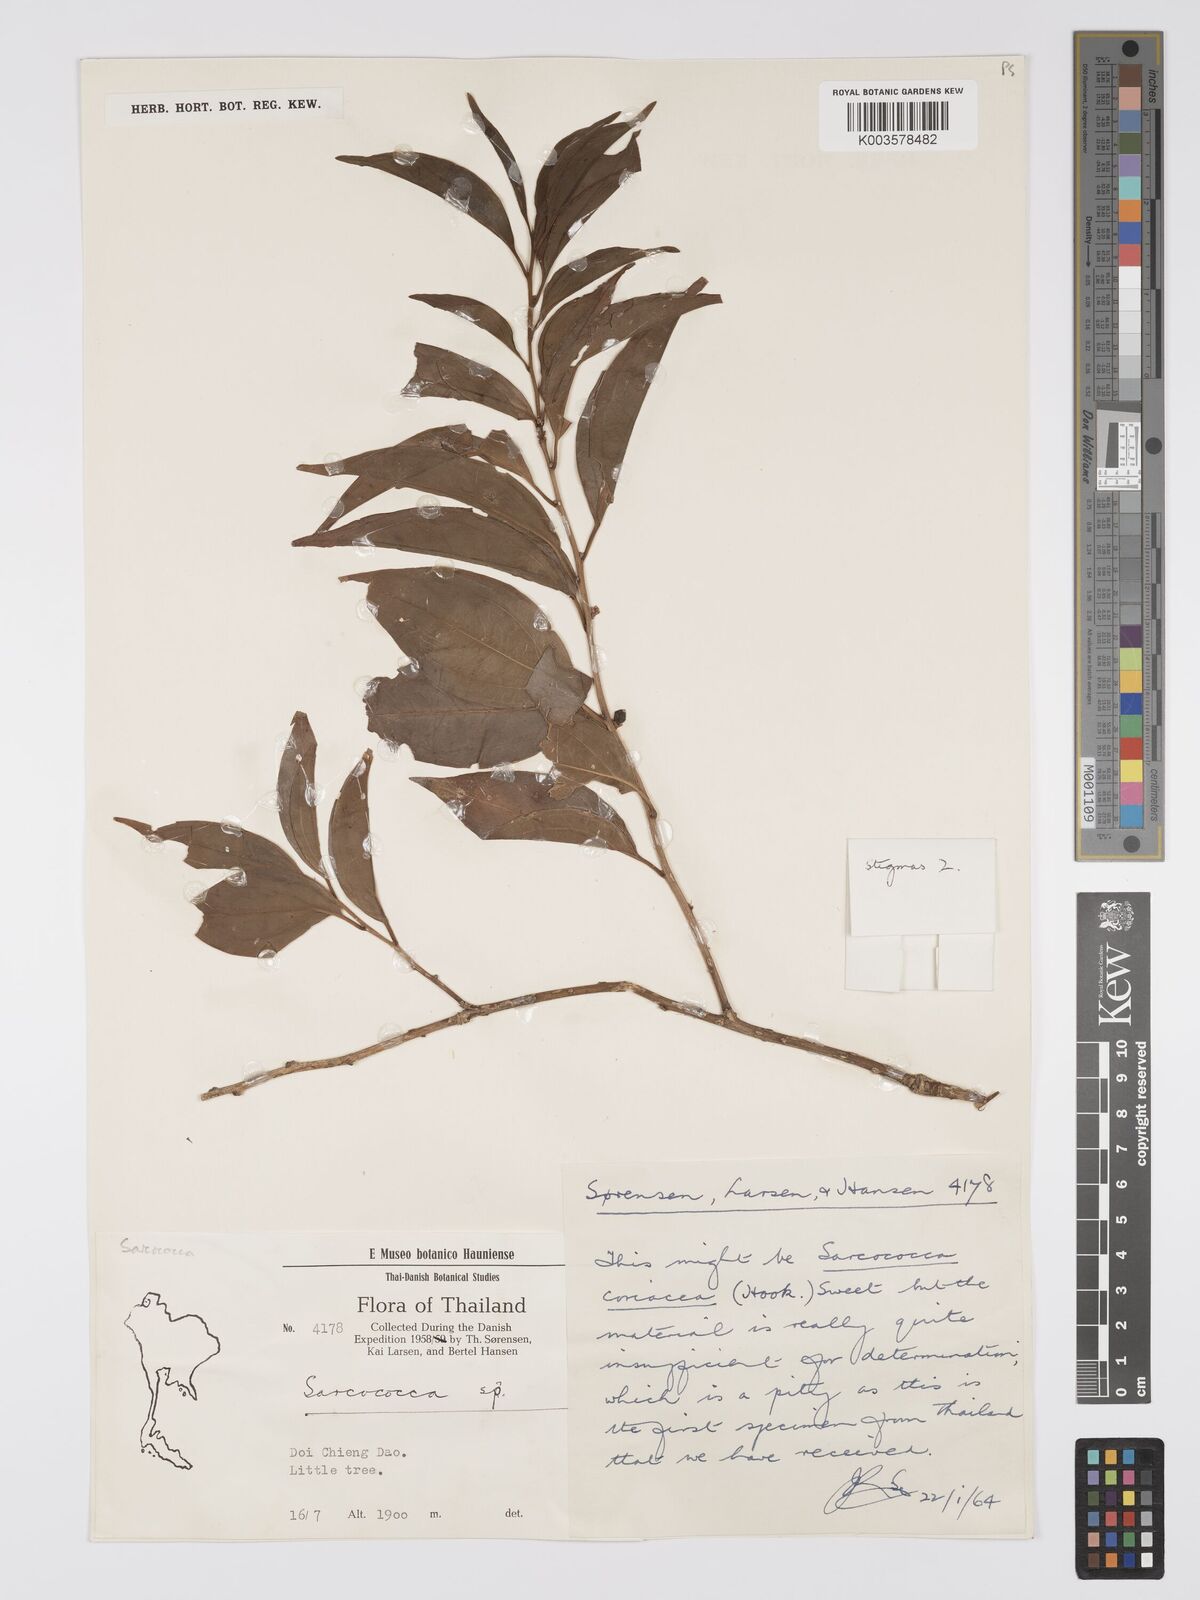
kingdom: Plantae
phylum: Tracheophyta
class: Magnoliopsida
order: Buxales
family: Buxaceae
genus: Sarcococca
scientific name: Sarcococca coriacea
